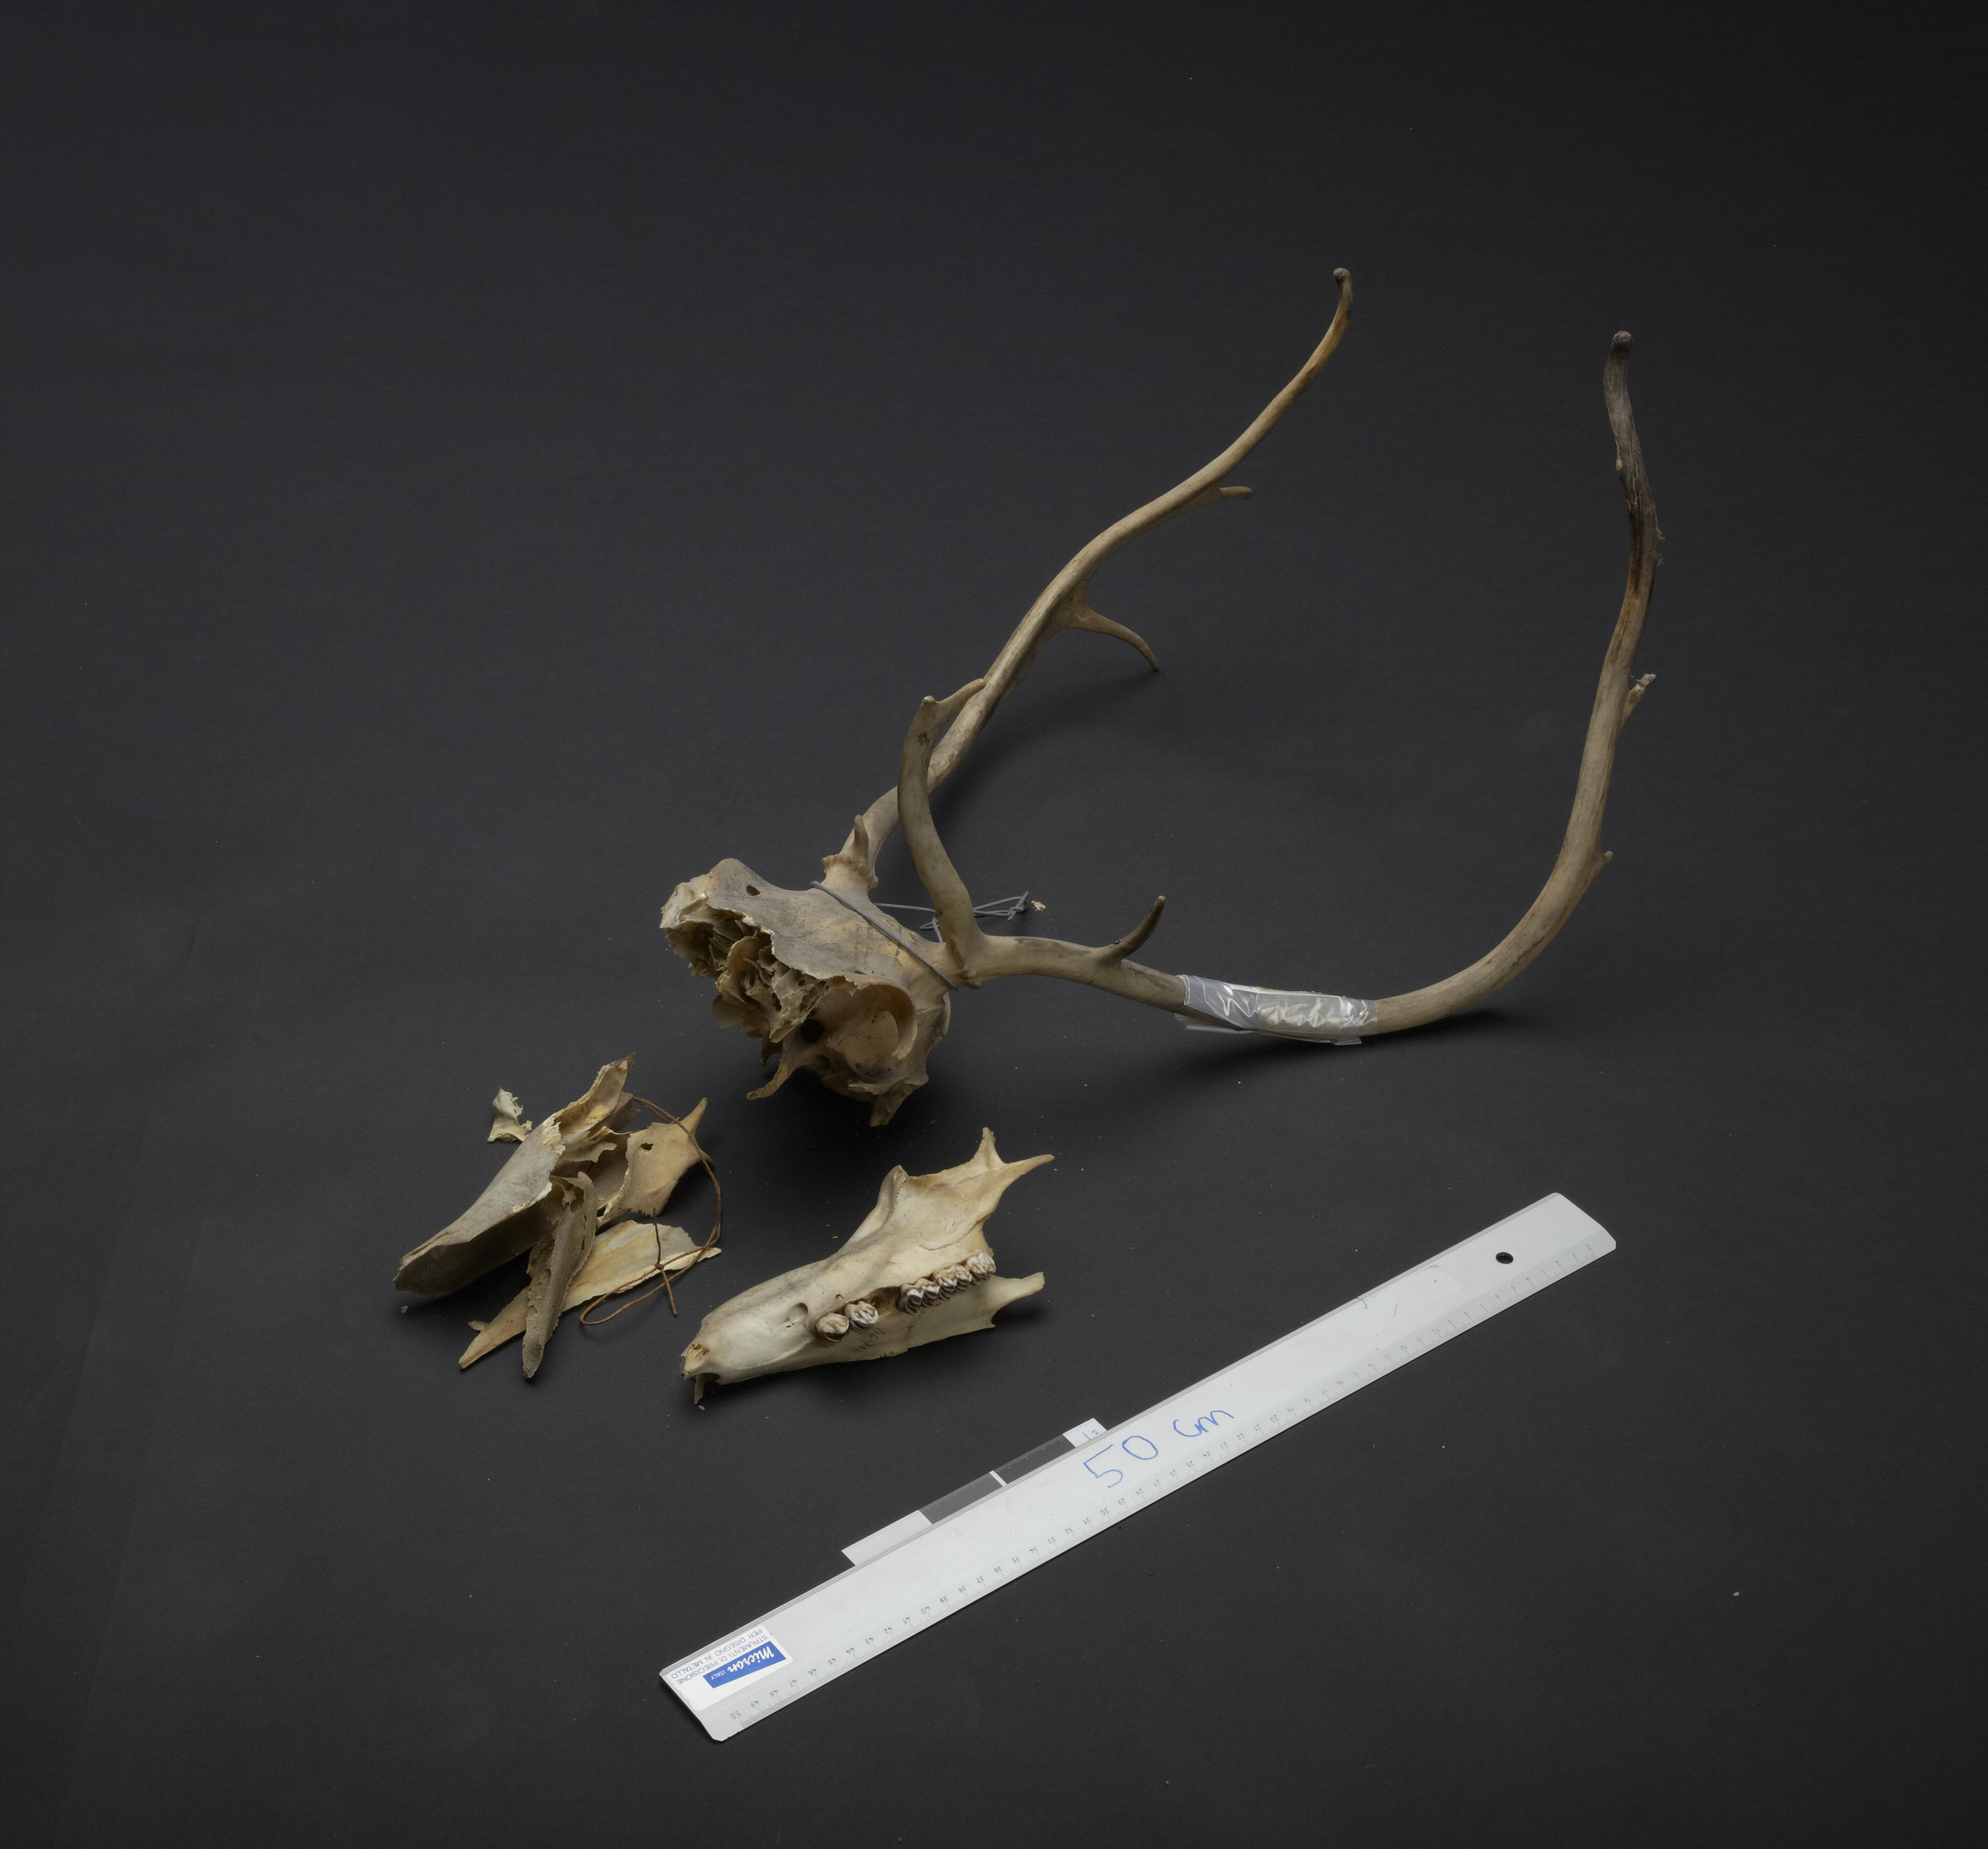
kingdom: Animalia
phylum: Chordata
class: Mammalia
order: Artiodactyla
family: Cervidae
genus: Rangifer
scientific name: Rangifer tarandus
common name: Reindeer
